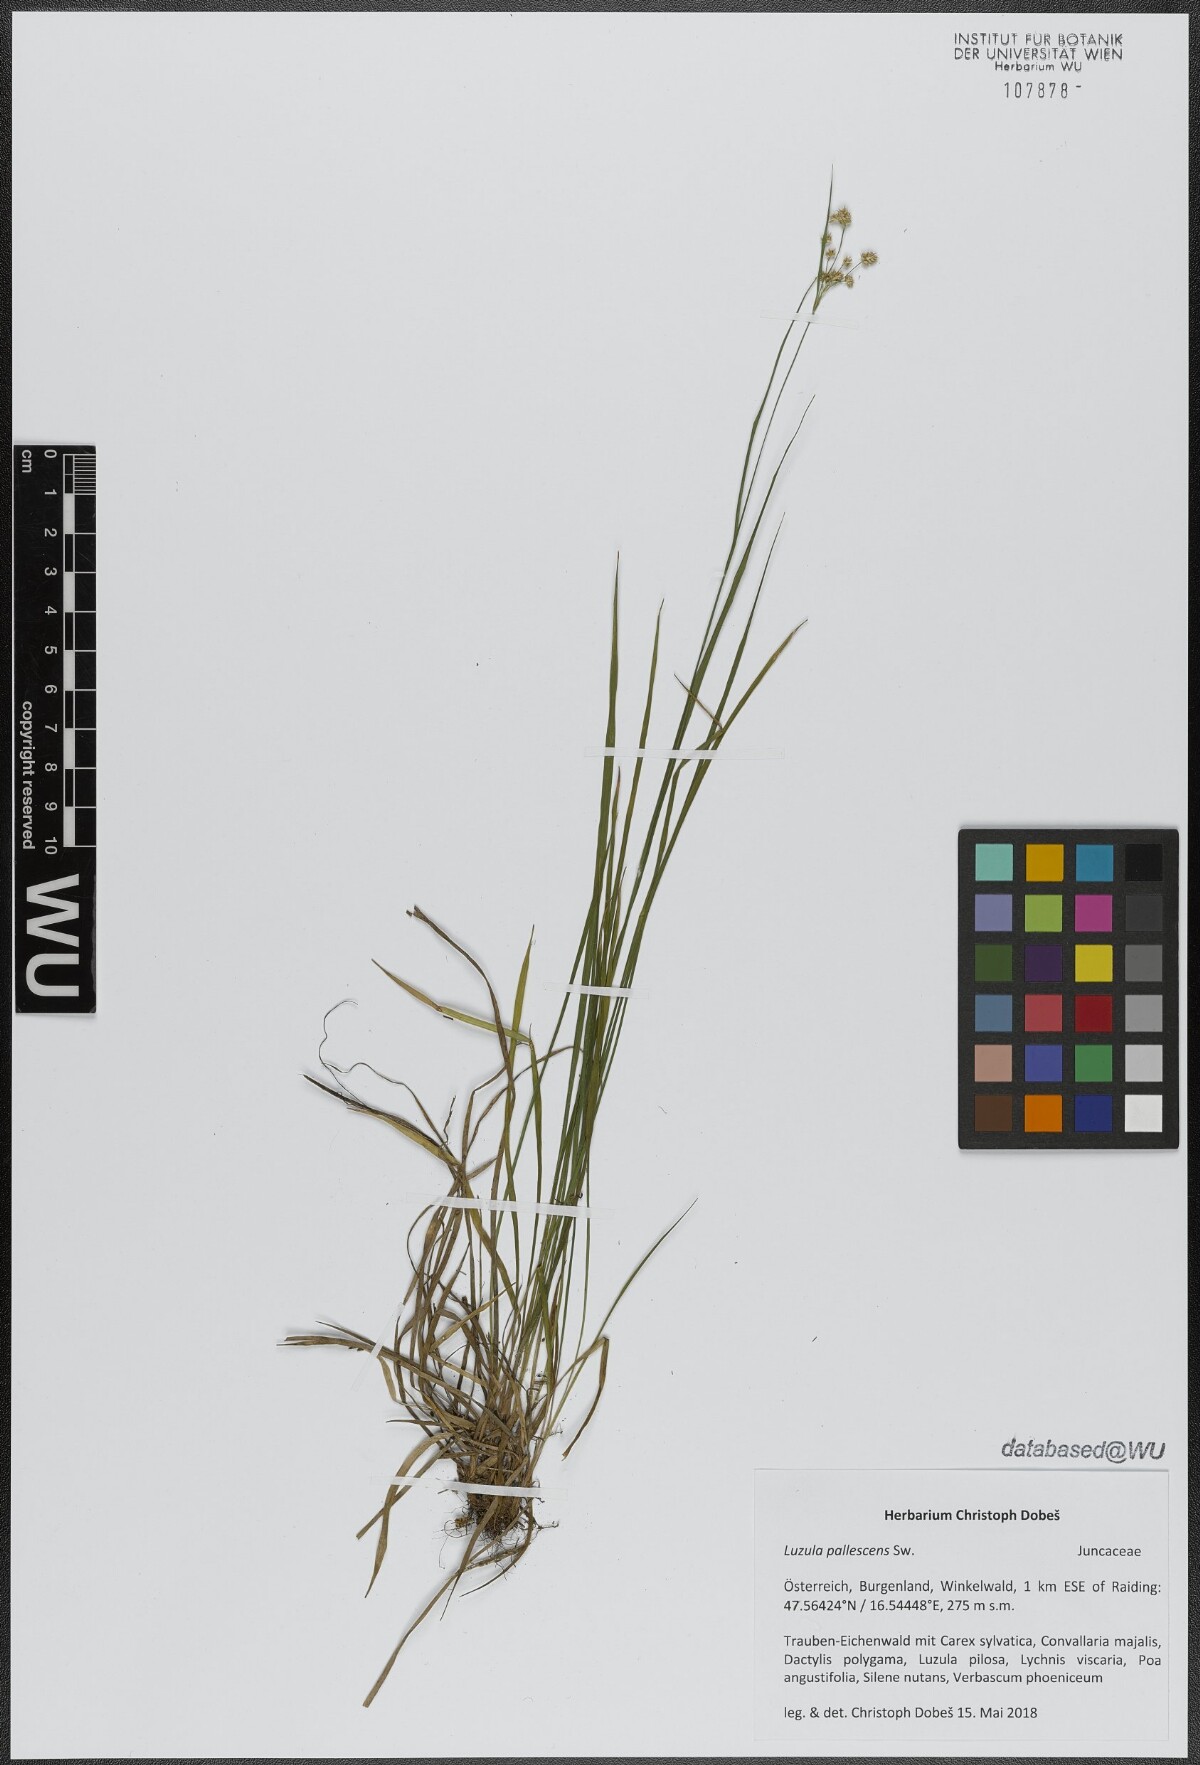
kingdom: Plantae
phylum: Tracheophyta
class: Liliopsida
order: Poales
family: Juncaceae
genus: Luzula
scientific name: Luzula pallescens
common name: Fen wood-rush
